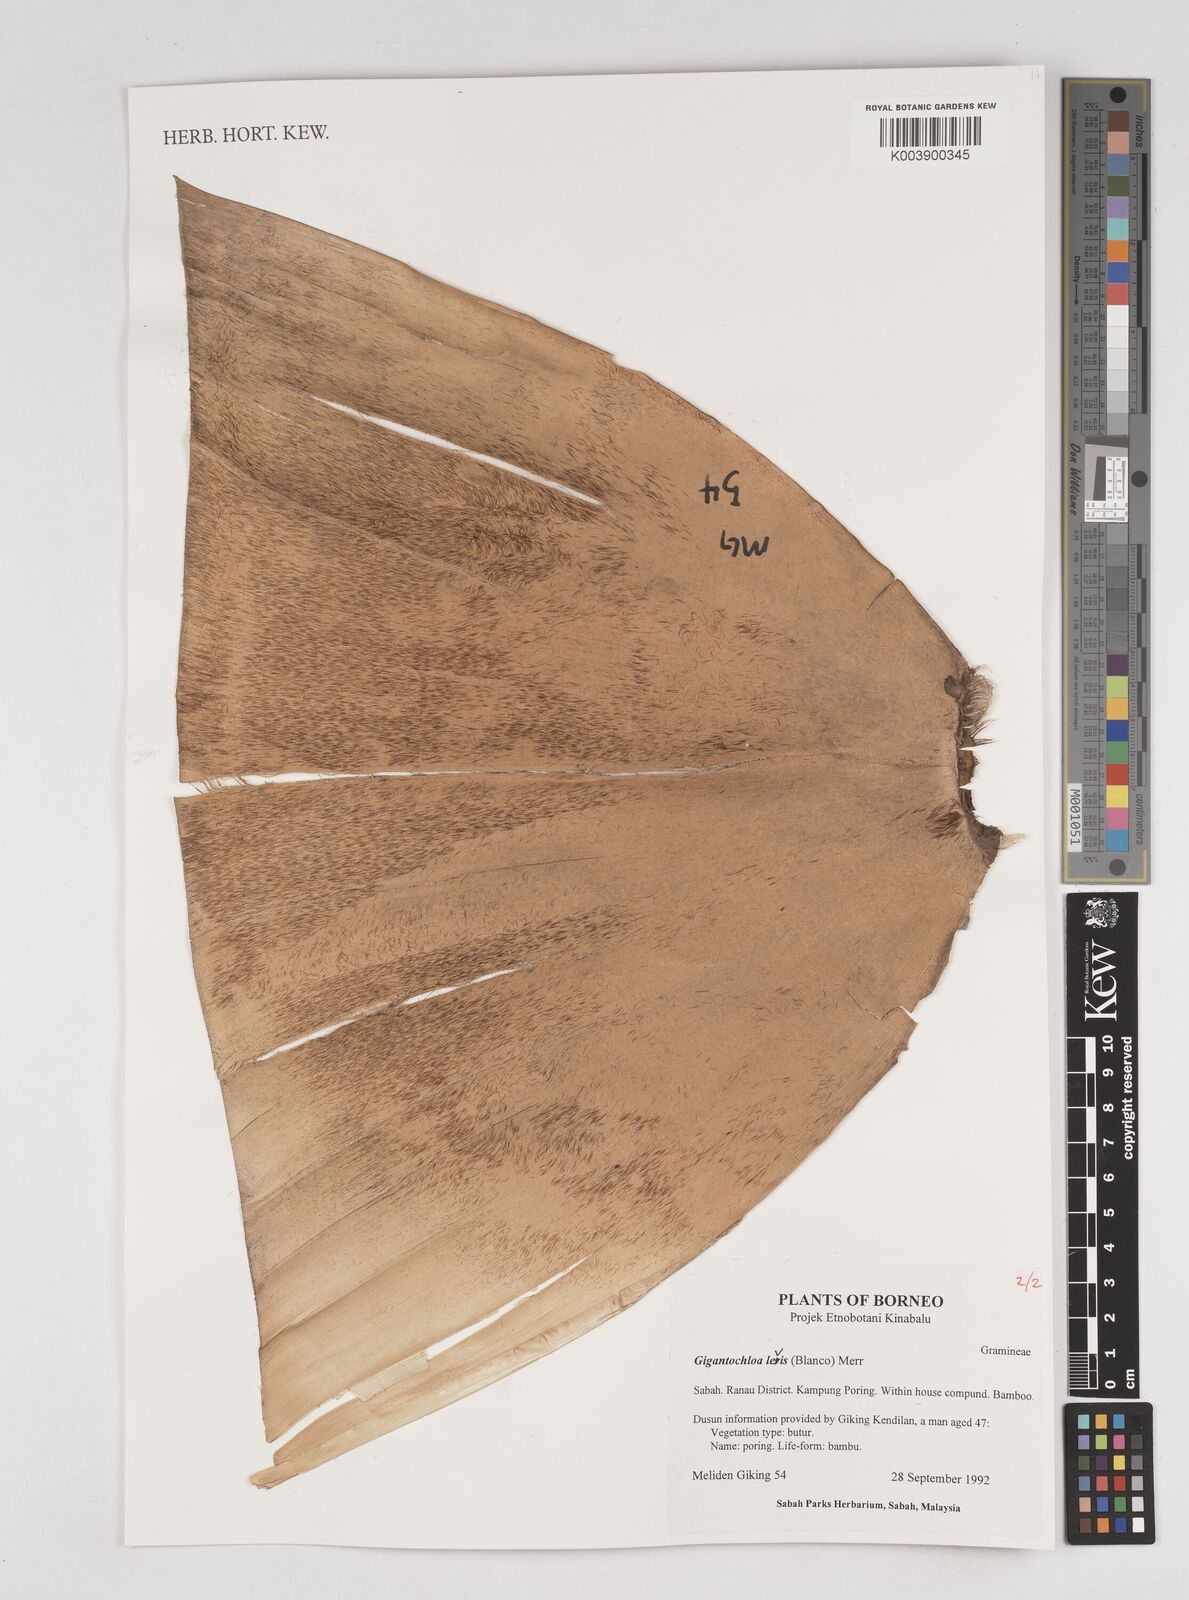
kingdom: Plantae
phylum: Tracheophyta
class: Liliopsida
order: Poales
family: Poaceae
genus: Gigantochloa
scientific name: Gigantochloa levis
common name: Smooth-shoot gigantochloa
